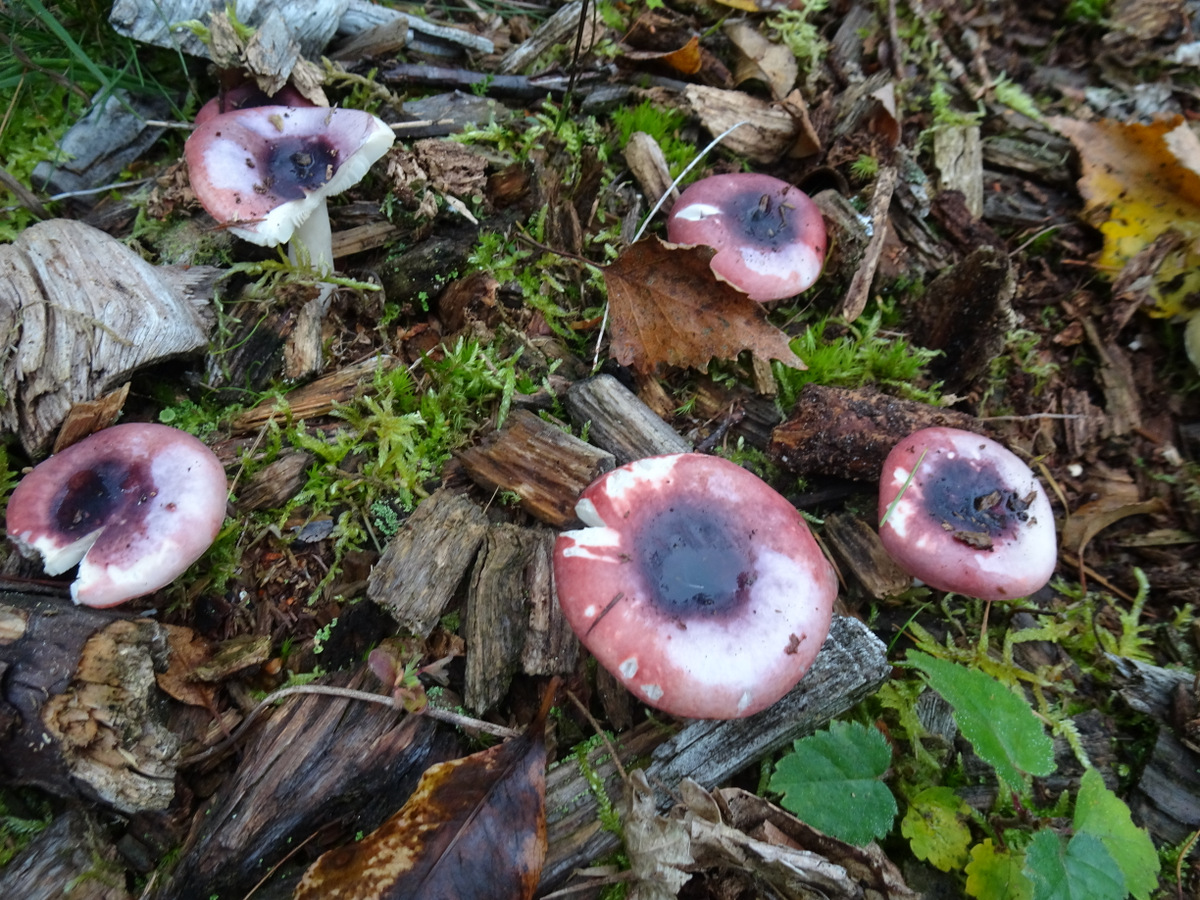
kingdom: Fungi
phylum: Basidiomycota
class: Agaricomycetes
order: Russulales
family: Russulaceae
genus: Russula
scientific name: Russula
